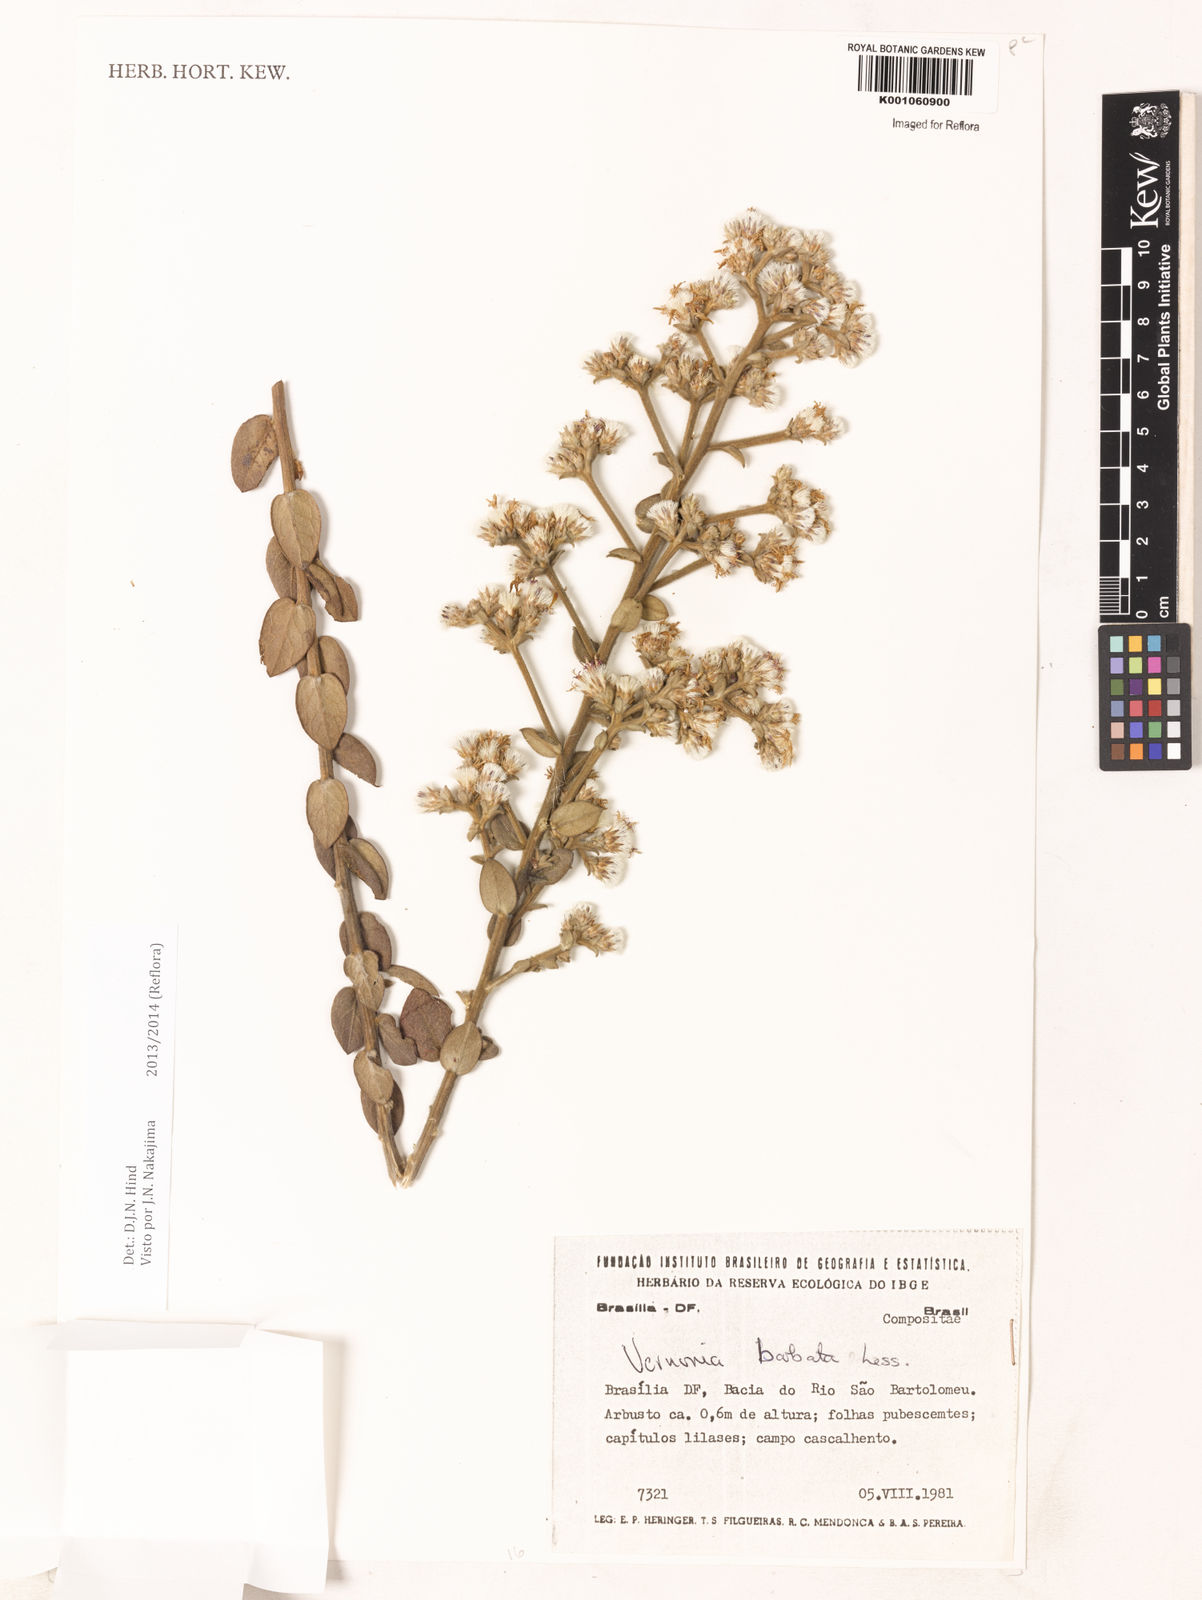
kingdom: Plantae
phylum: Tracheophyta
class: Magnoliopsida
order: Asterales
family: Asteraceae
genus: Lepidaploa
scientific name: Lepidaploa barbata
